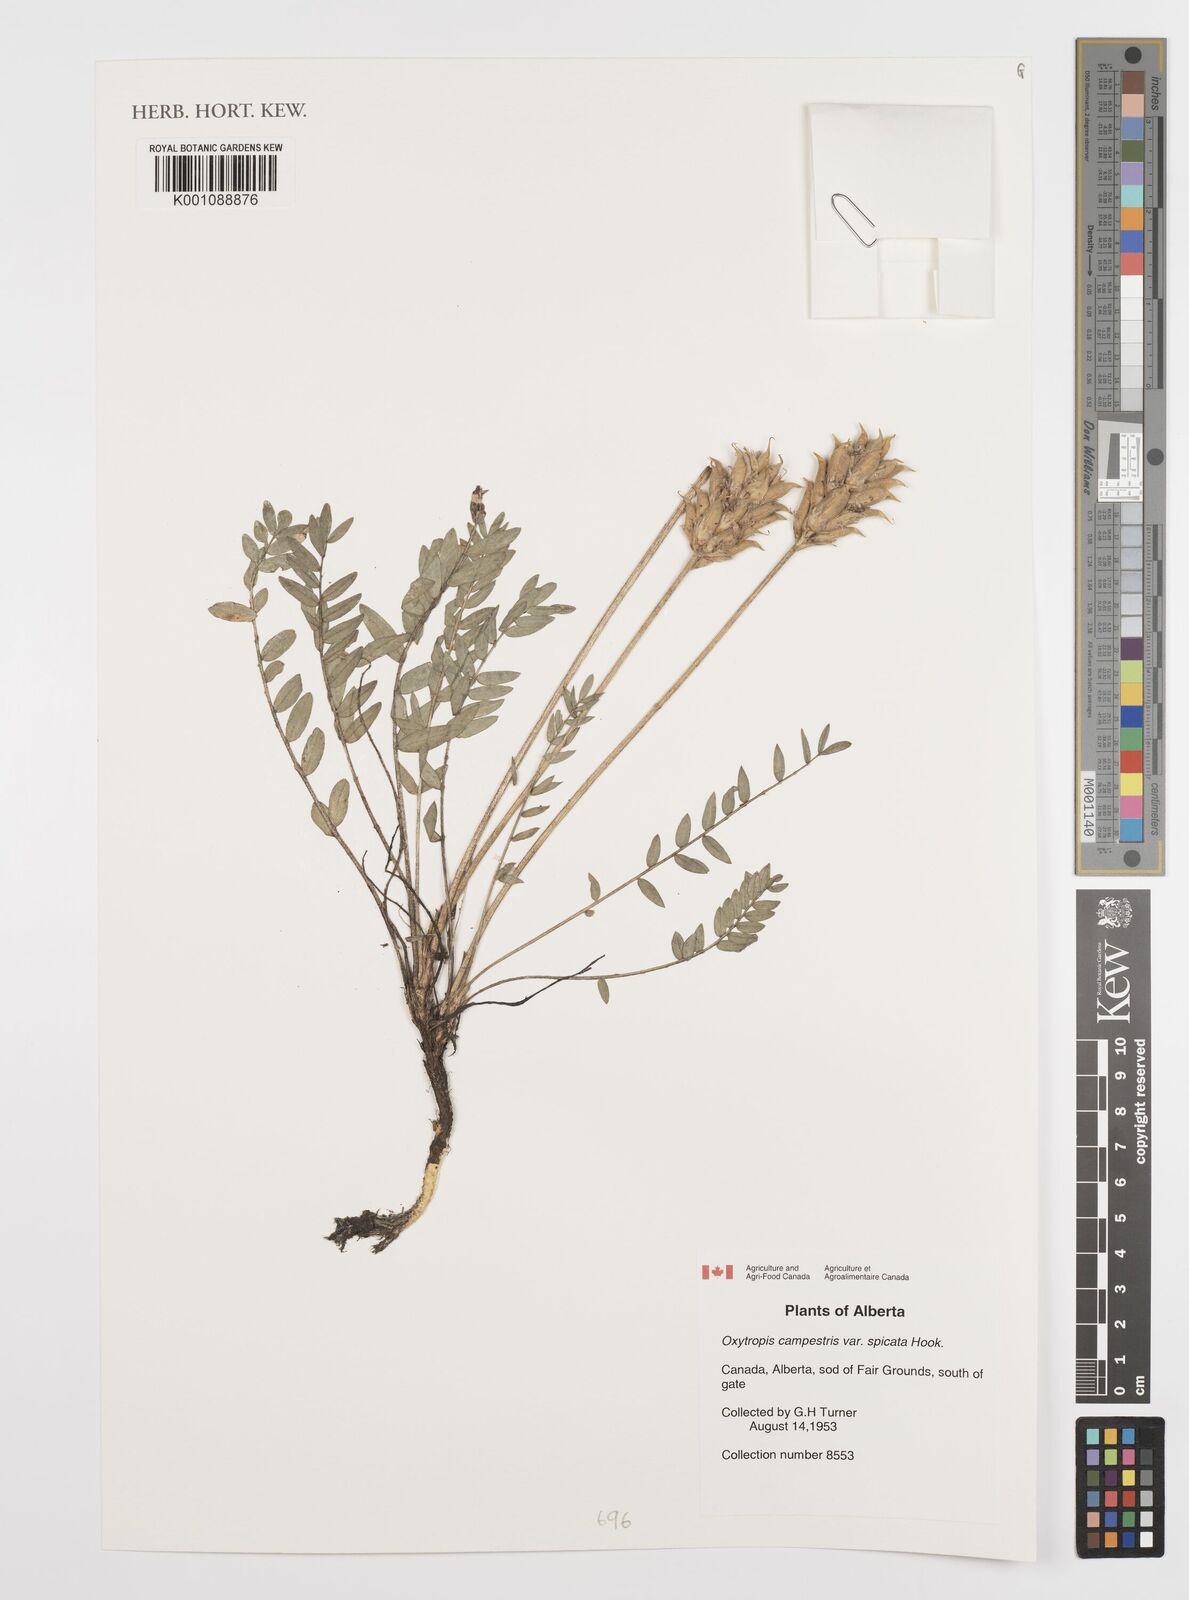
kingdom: Plantae
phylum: Tracheophyta
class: Magnoliopsida
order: Fabales
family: Fabaceae
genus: Oxytropis
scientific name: Oxytropis campestris
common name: Field locoweed
